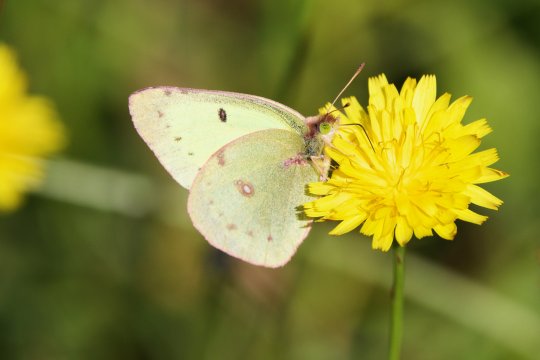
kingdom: Animalia
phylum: Arthropoda
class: Insecta
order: Lepidoptera
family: Pieridae
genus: Colias
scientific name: Colias philodice
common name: Clouded Sulphur
